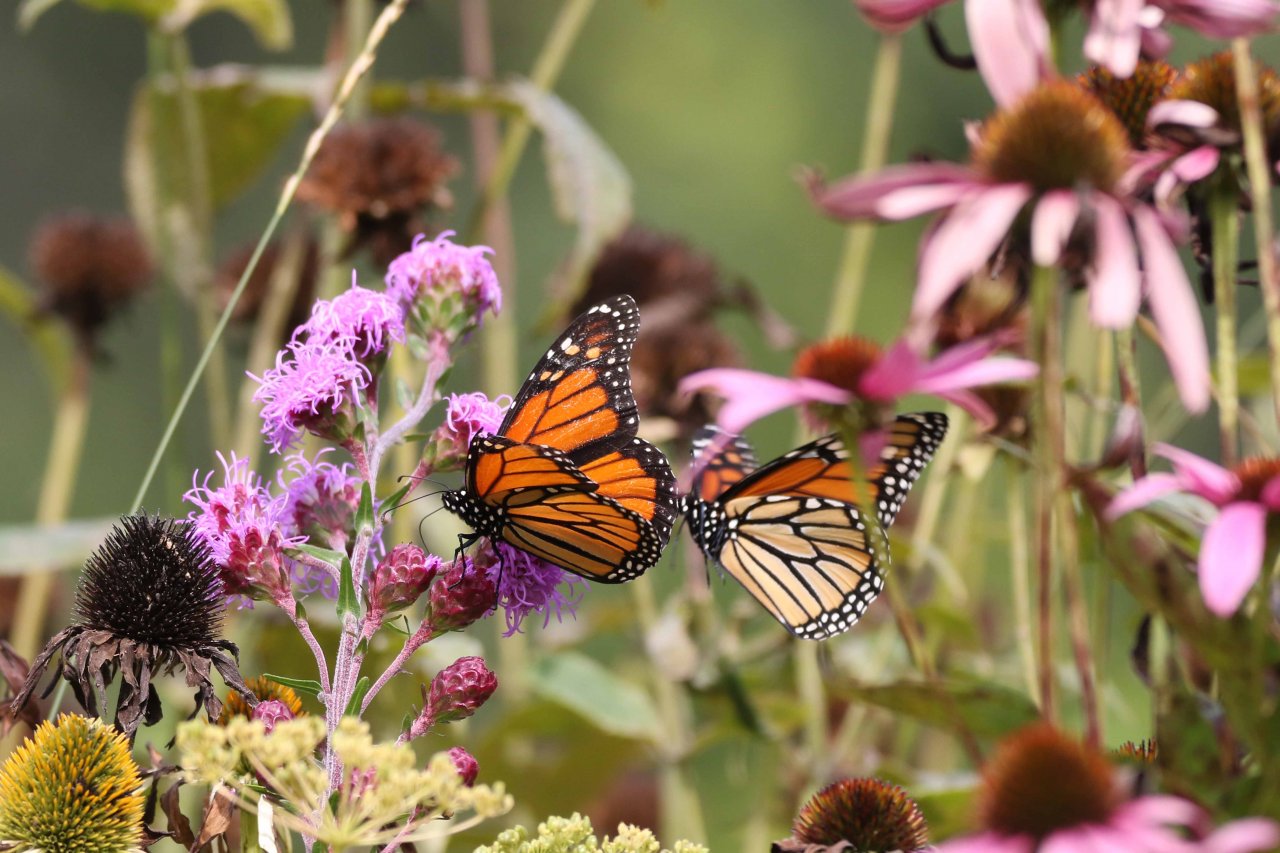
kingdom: Animalia
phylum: Arthropoda
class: Insecta
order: Lepidoptera
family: Nymphalidae
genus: Danaus
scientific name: Danaus plexippus
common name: Monarch
